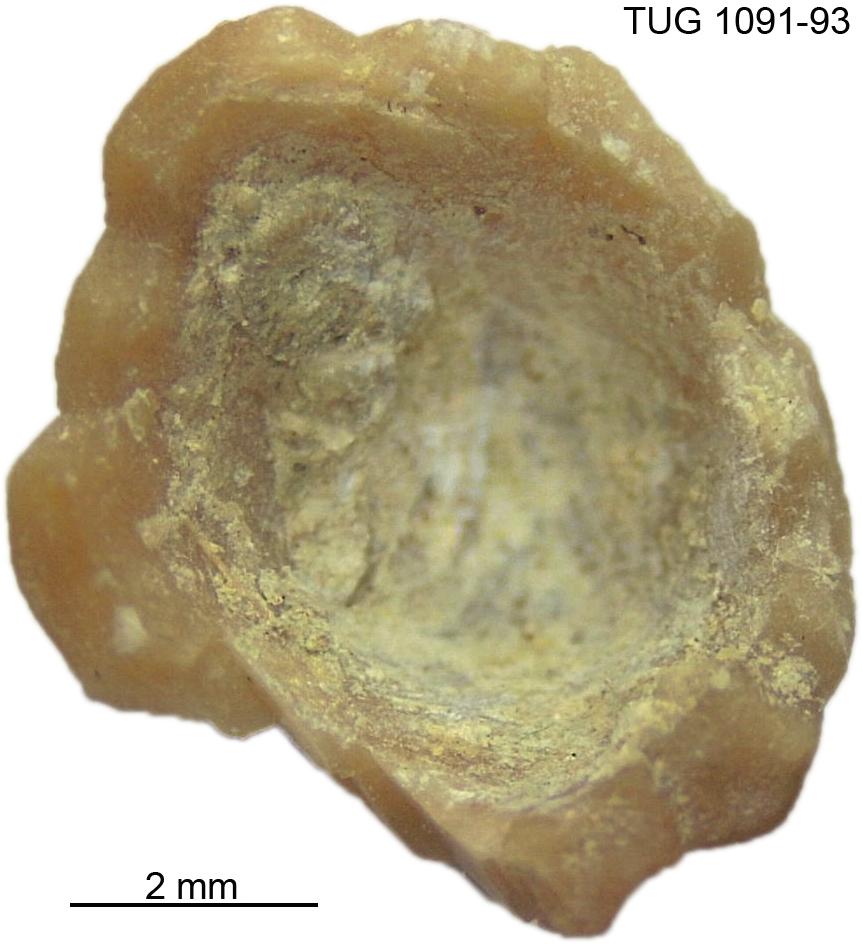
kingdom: Animalia
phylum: Echinodermata
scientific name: Echinodermata
